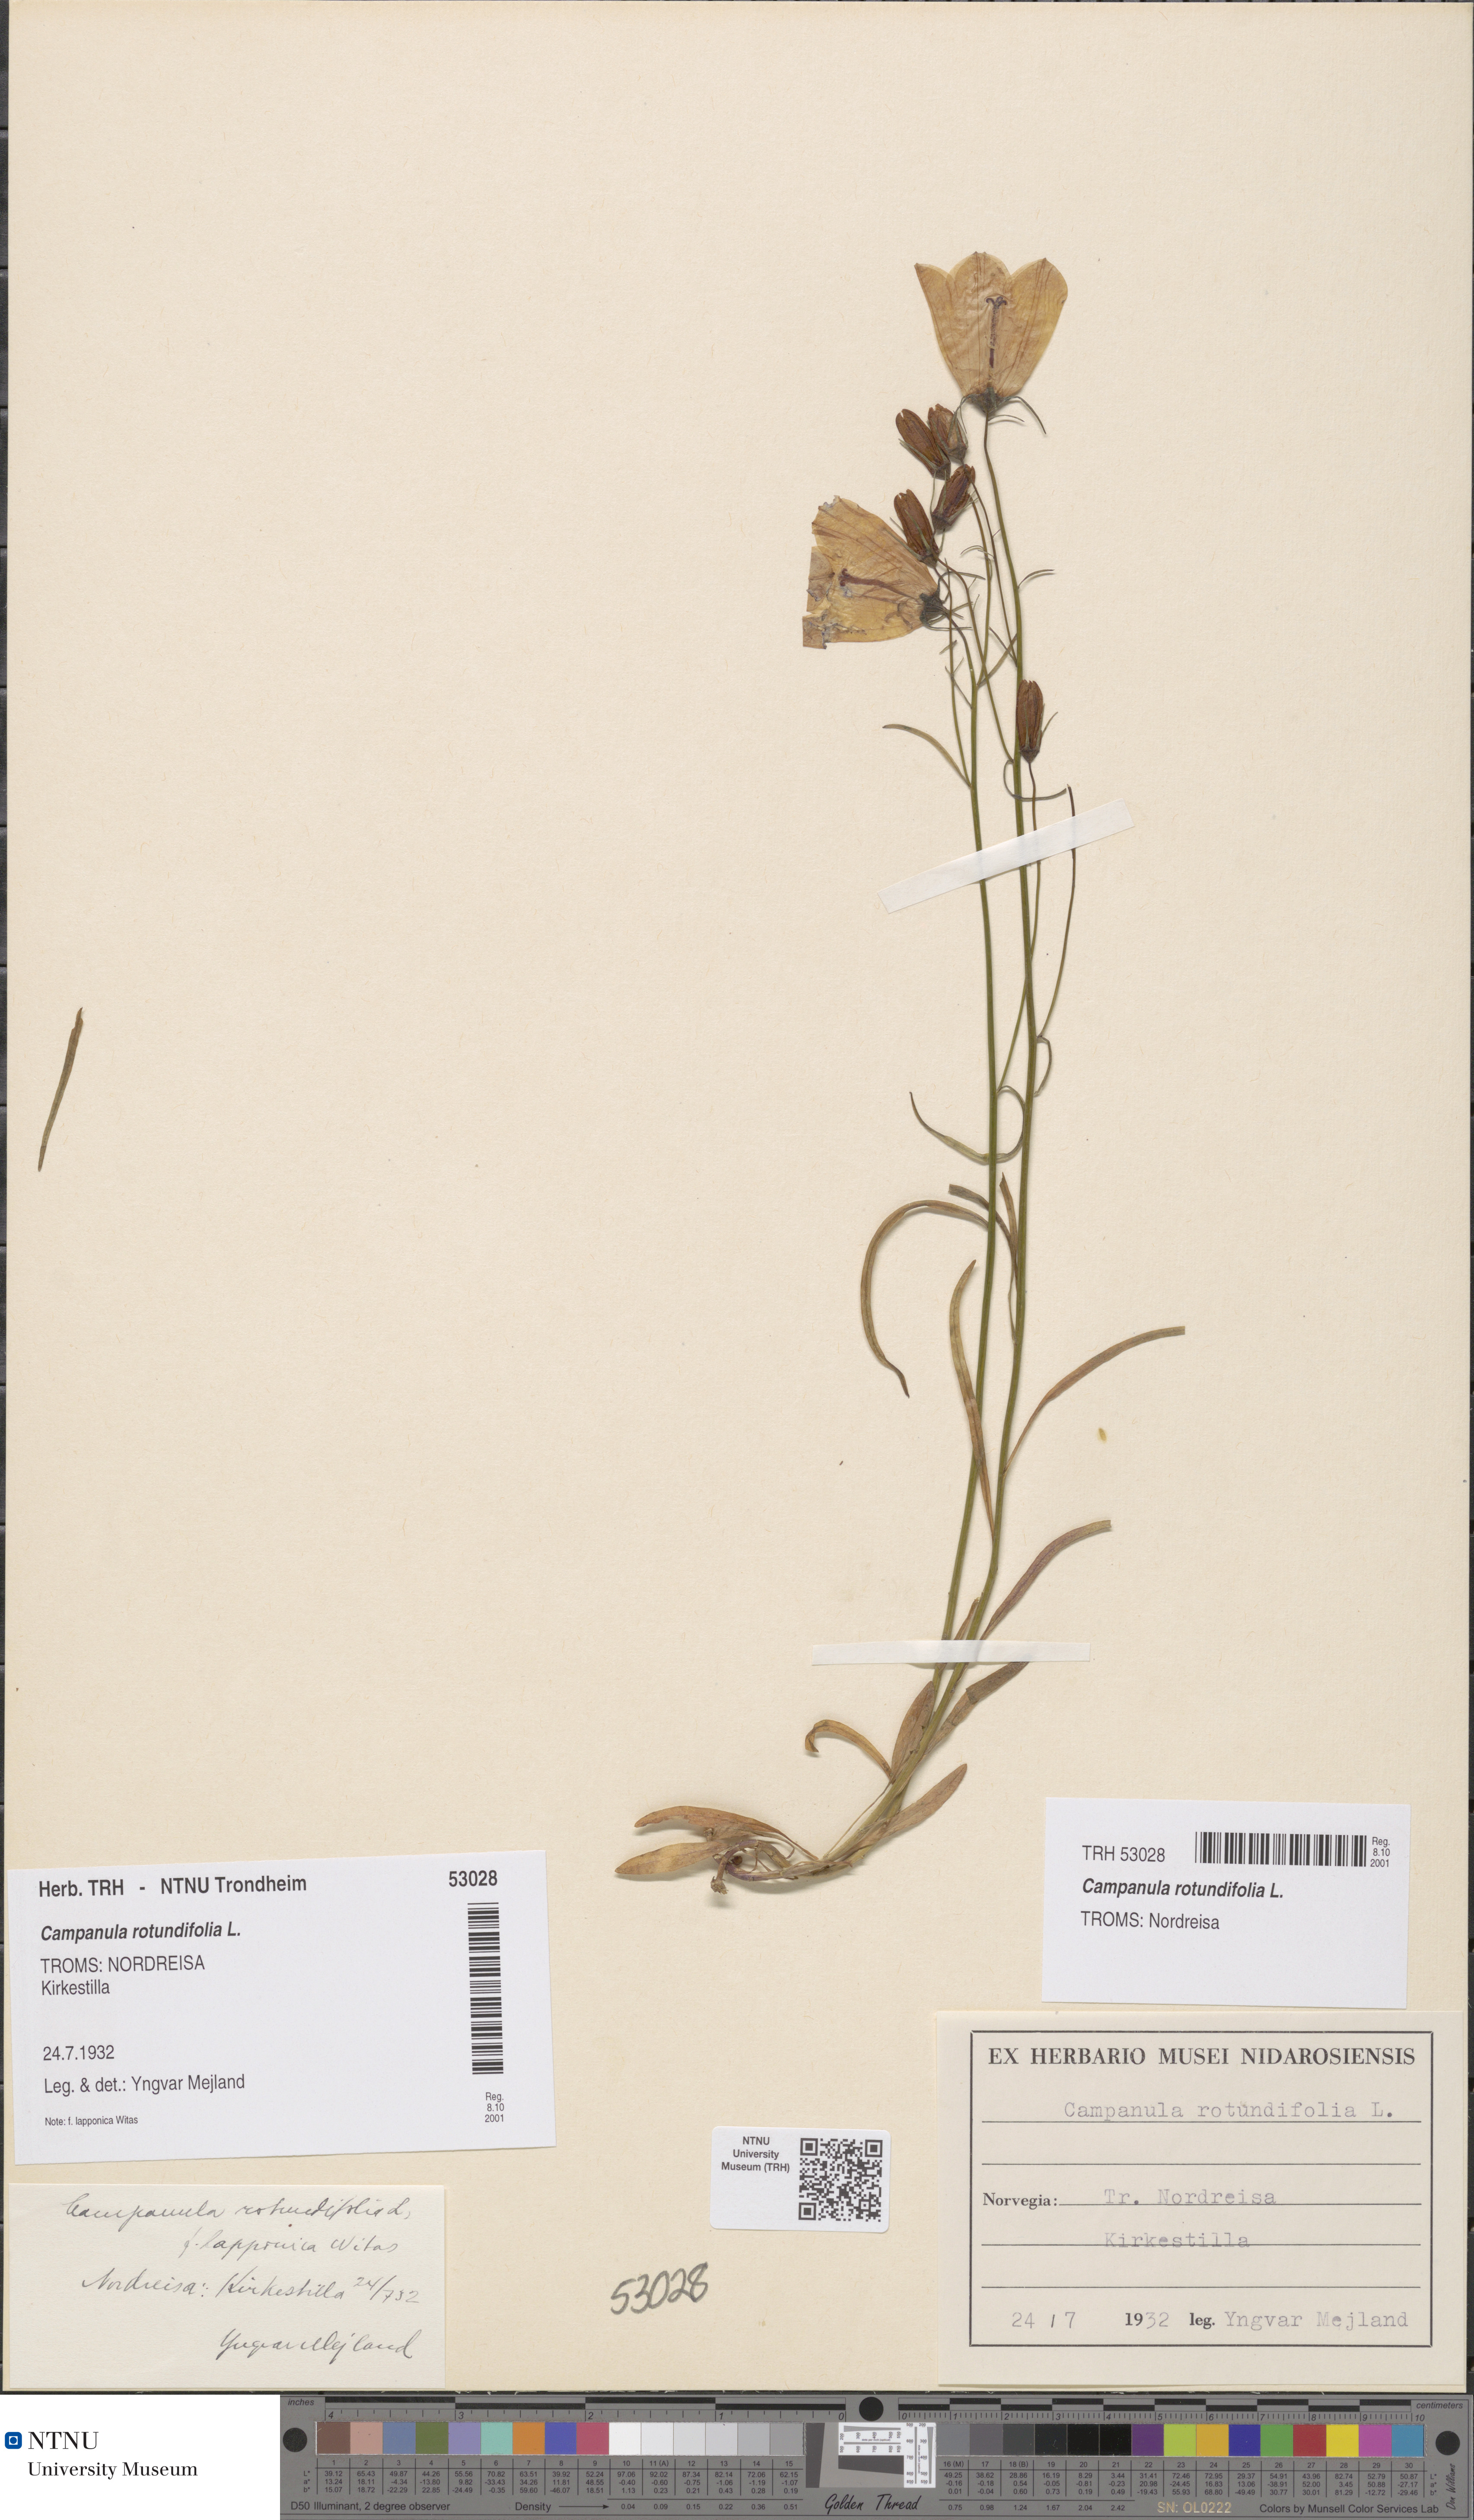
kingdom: Plantae
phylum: Tracheophyta
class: Magnoliopsida
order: Asterales
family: Campanulaceae
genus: Campanula
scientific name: Campanula rotundifolia
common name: Harebell
